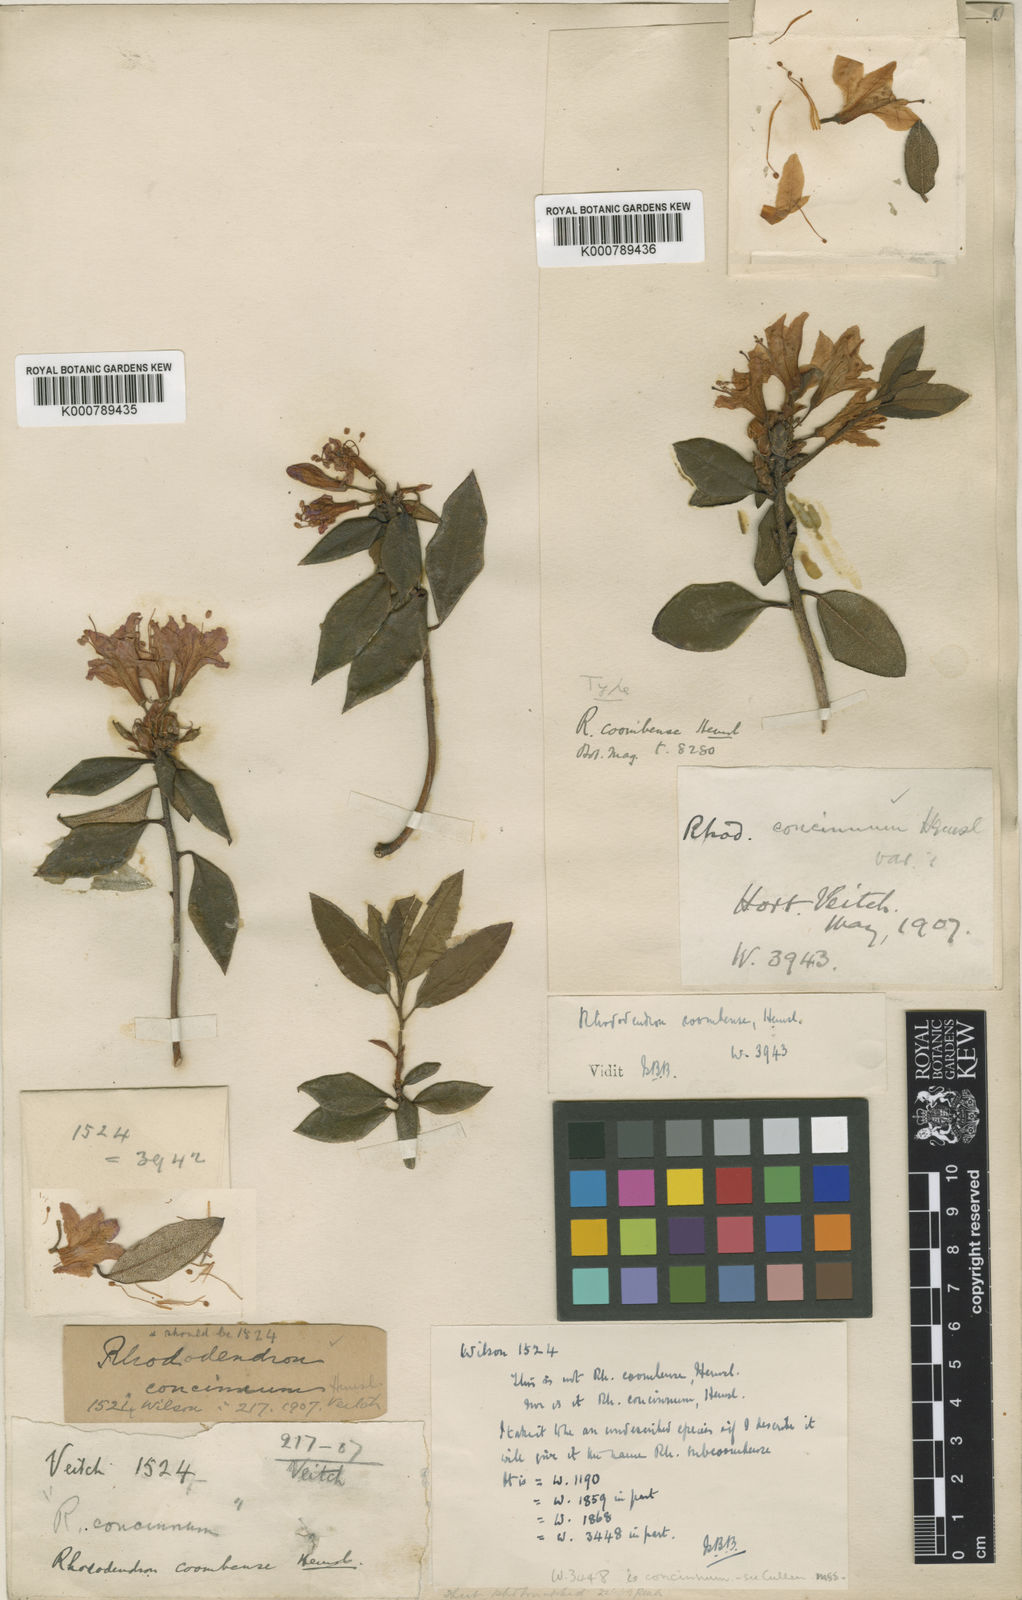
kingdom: Plantae
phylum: Tracheophyta
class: Magnoliopsida
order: Ericales
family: Ericaceae
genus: Rhododendron
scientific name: Rhododendron
